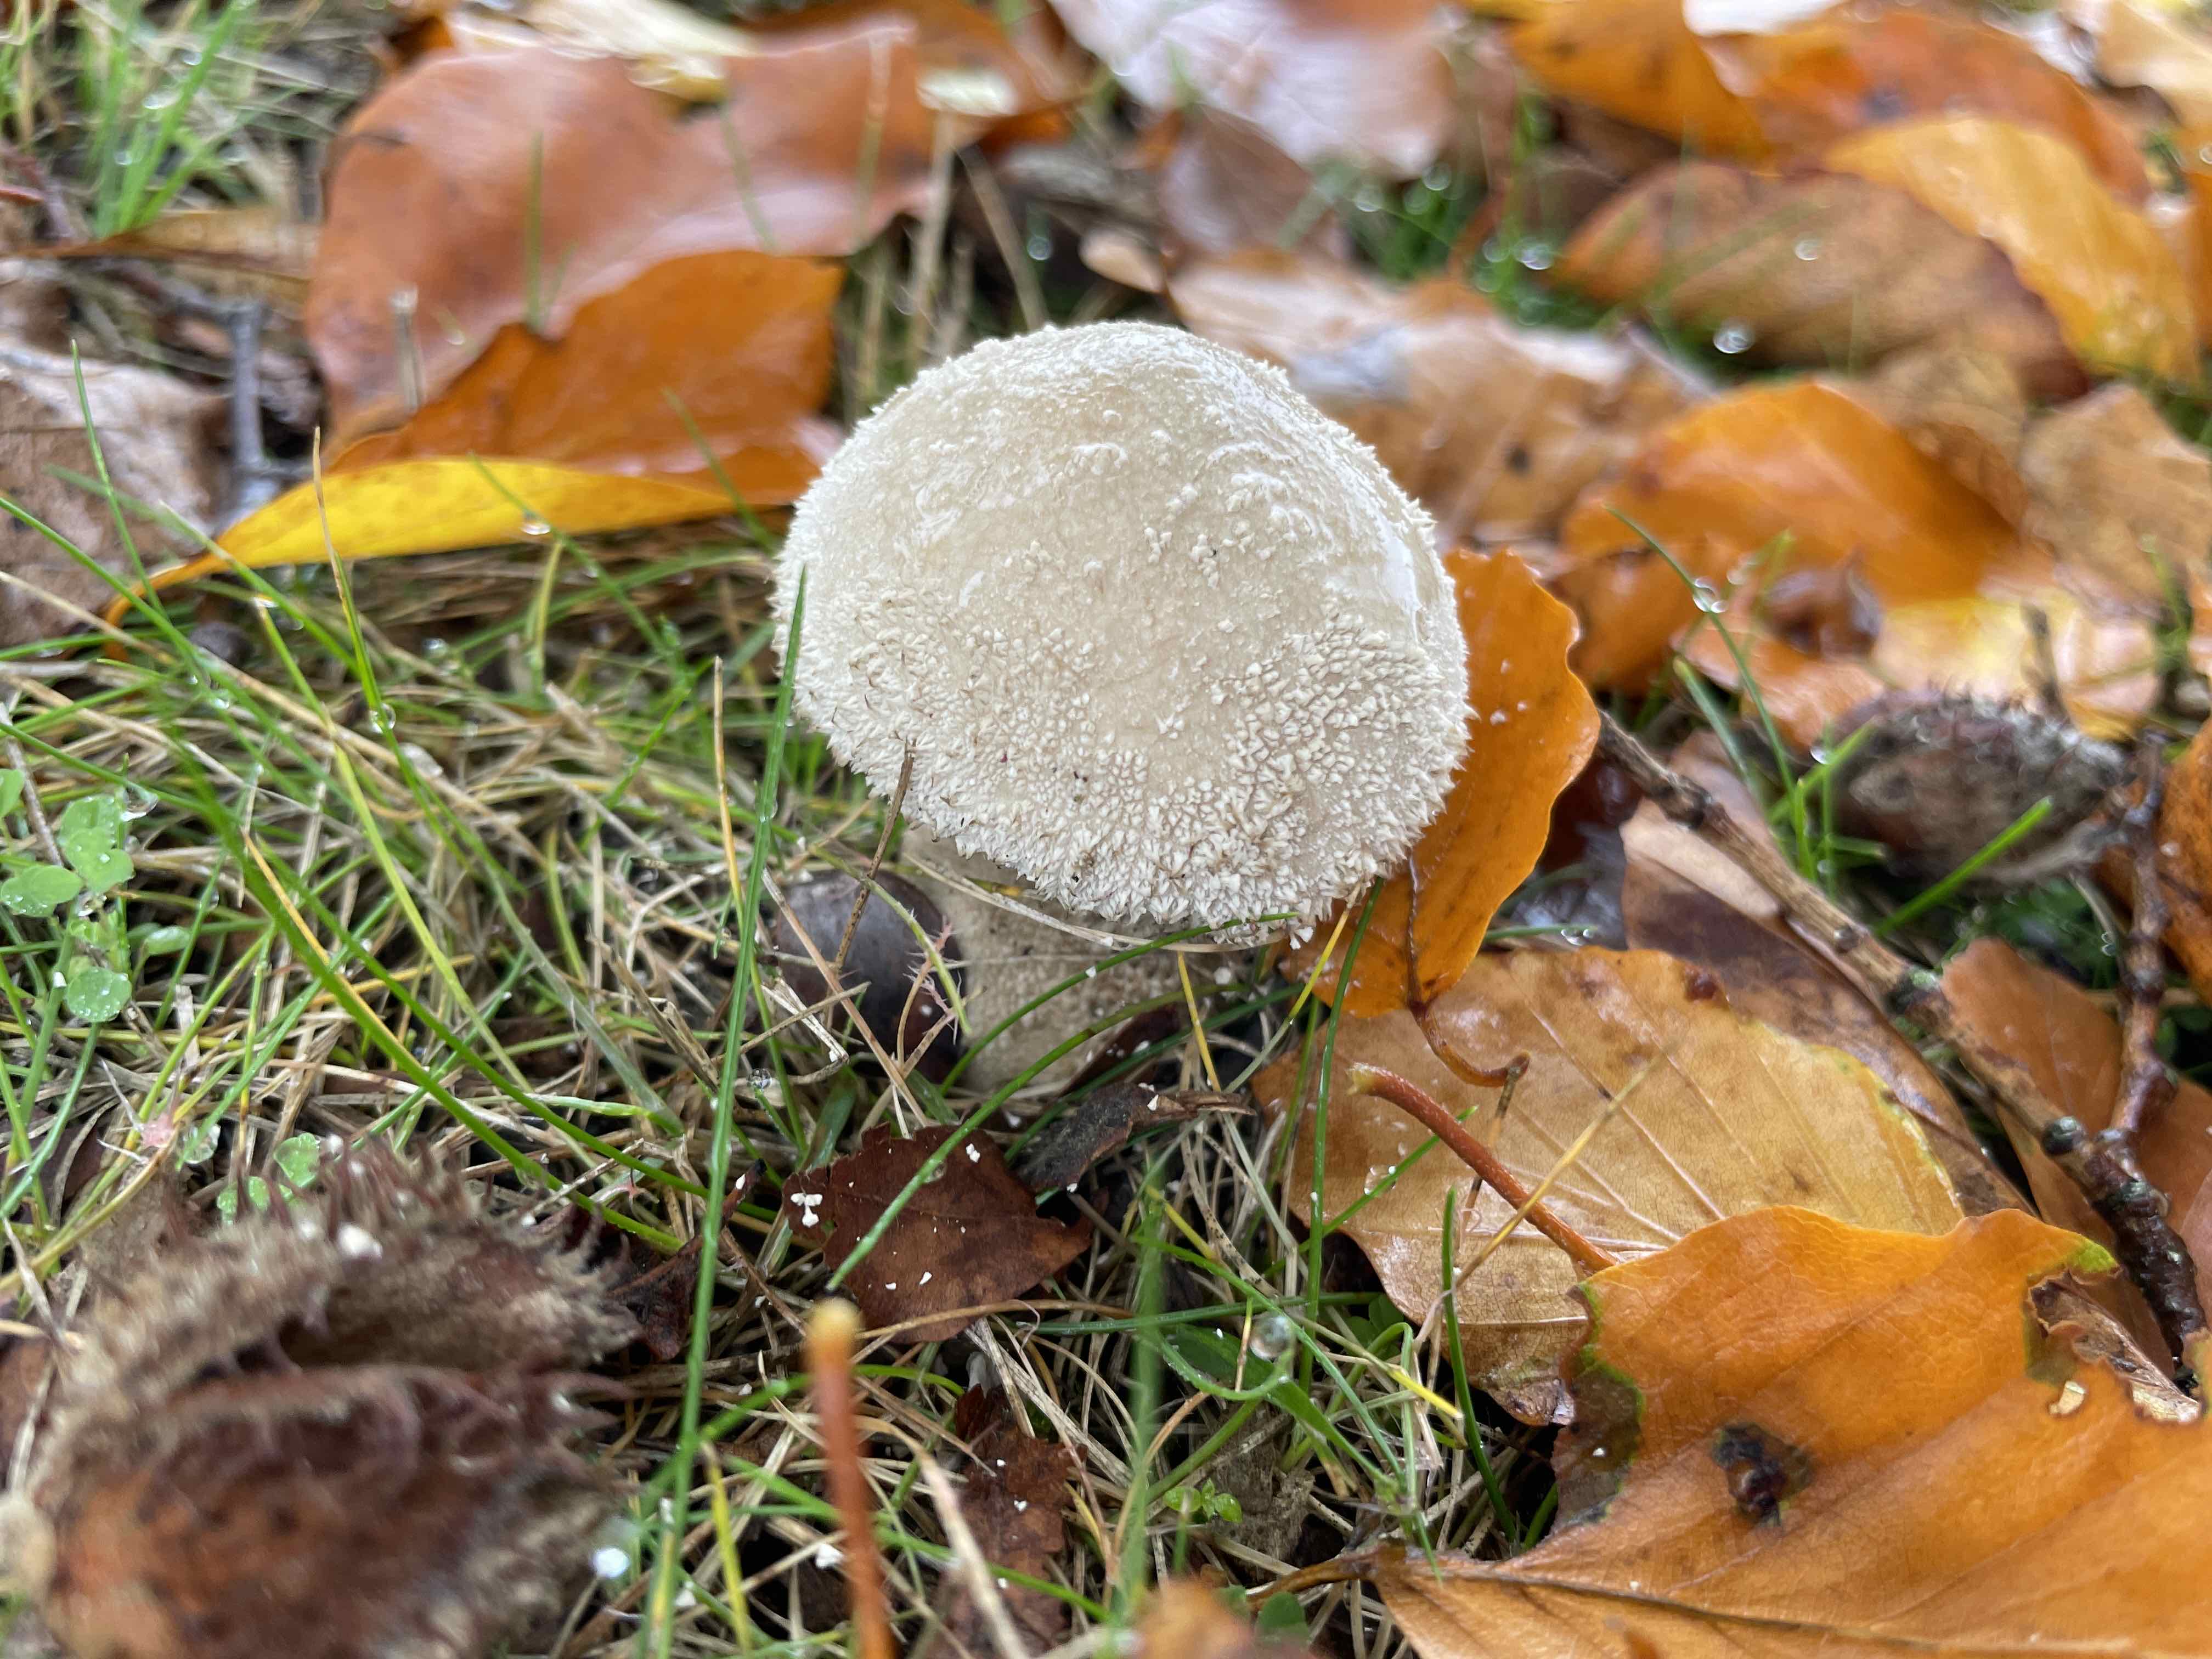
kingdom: Fungi
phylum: Basidiomycota
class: Agaricomycetes
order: Agaricales
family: Lycoperdaceae
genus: Lycoperdon
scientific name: Lycoperdon perlatum
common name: krystal-støvbold
